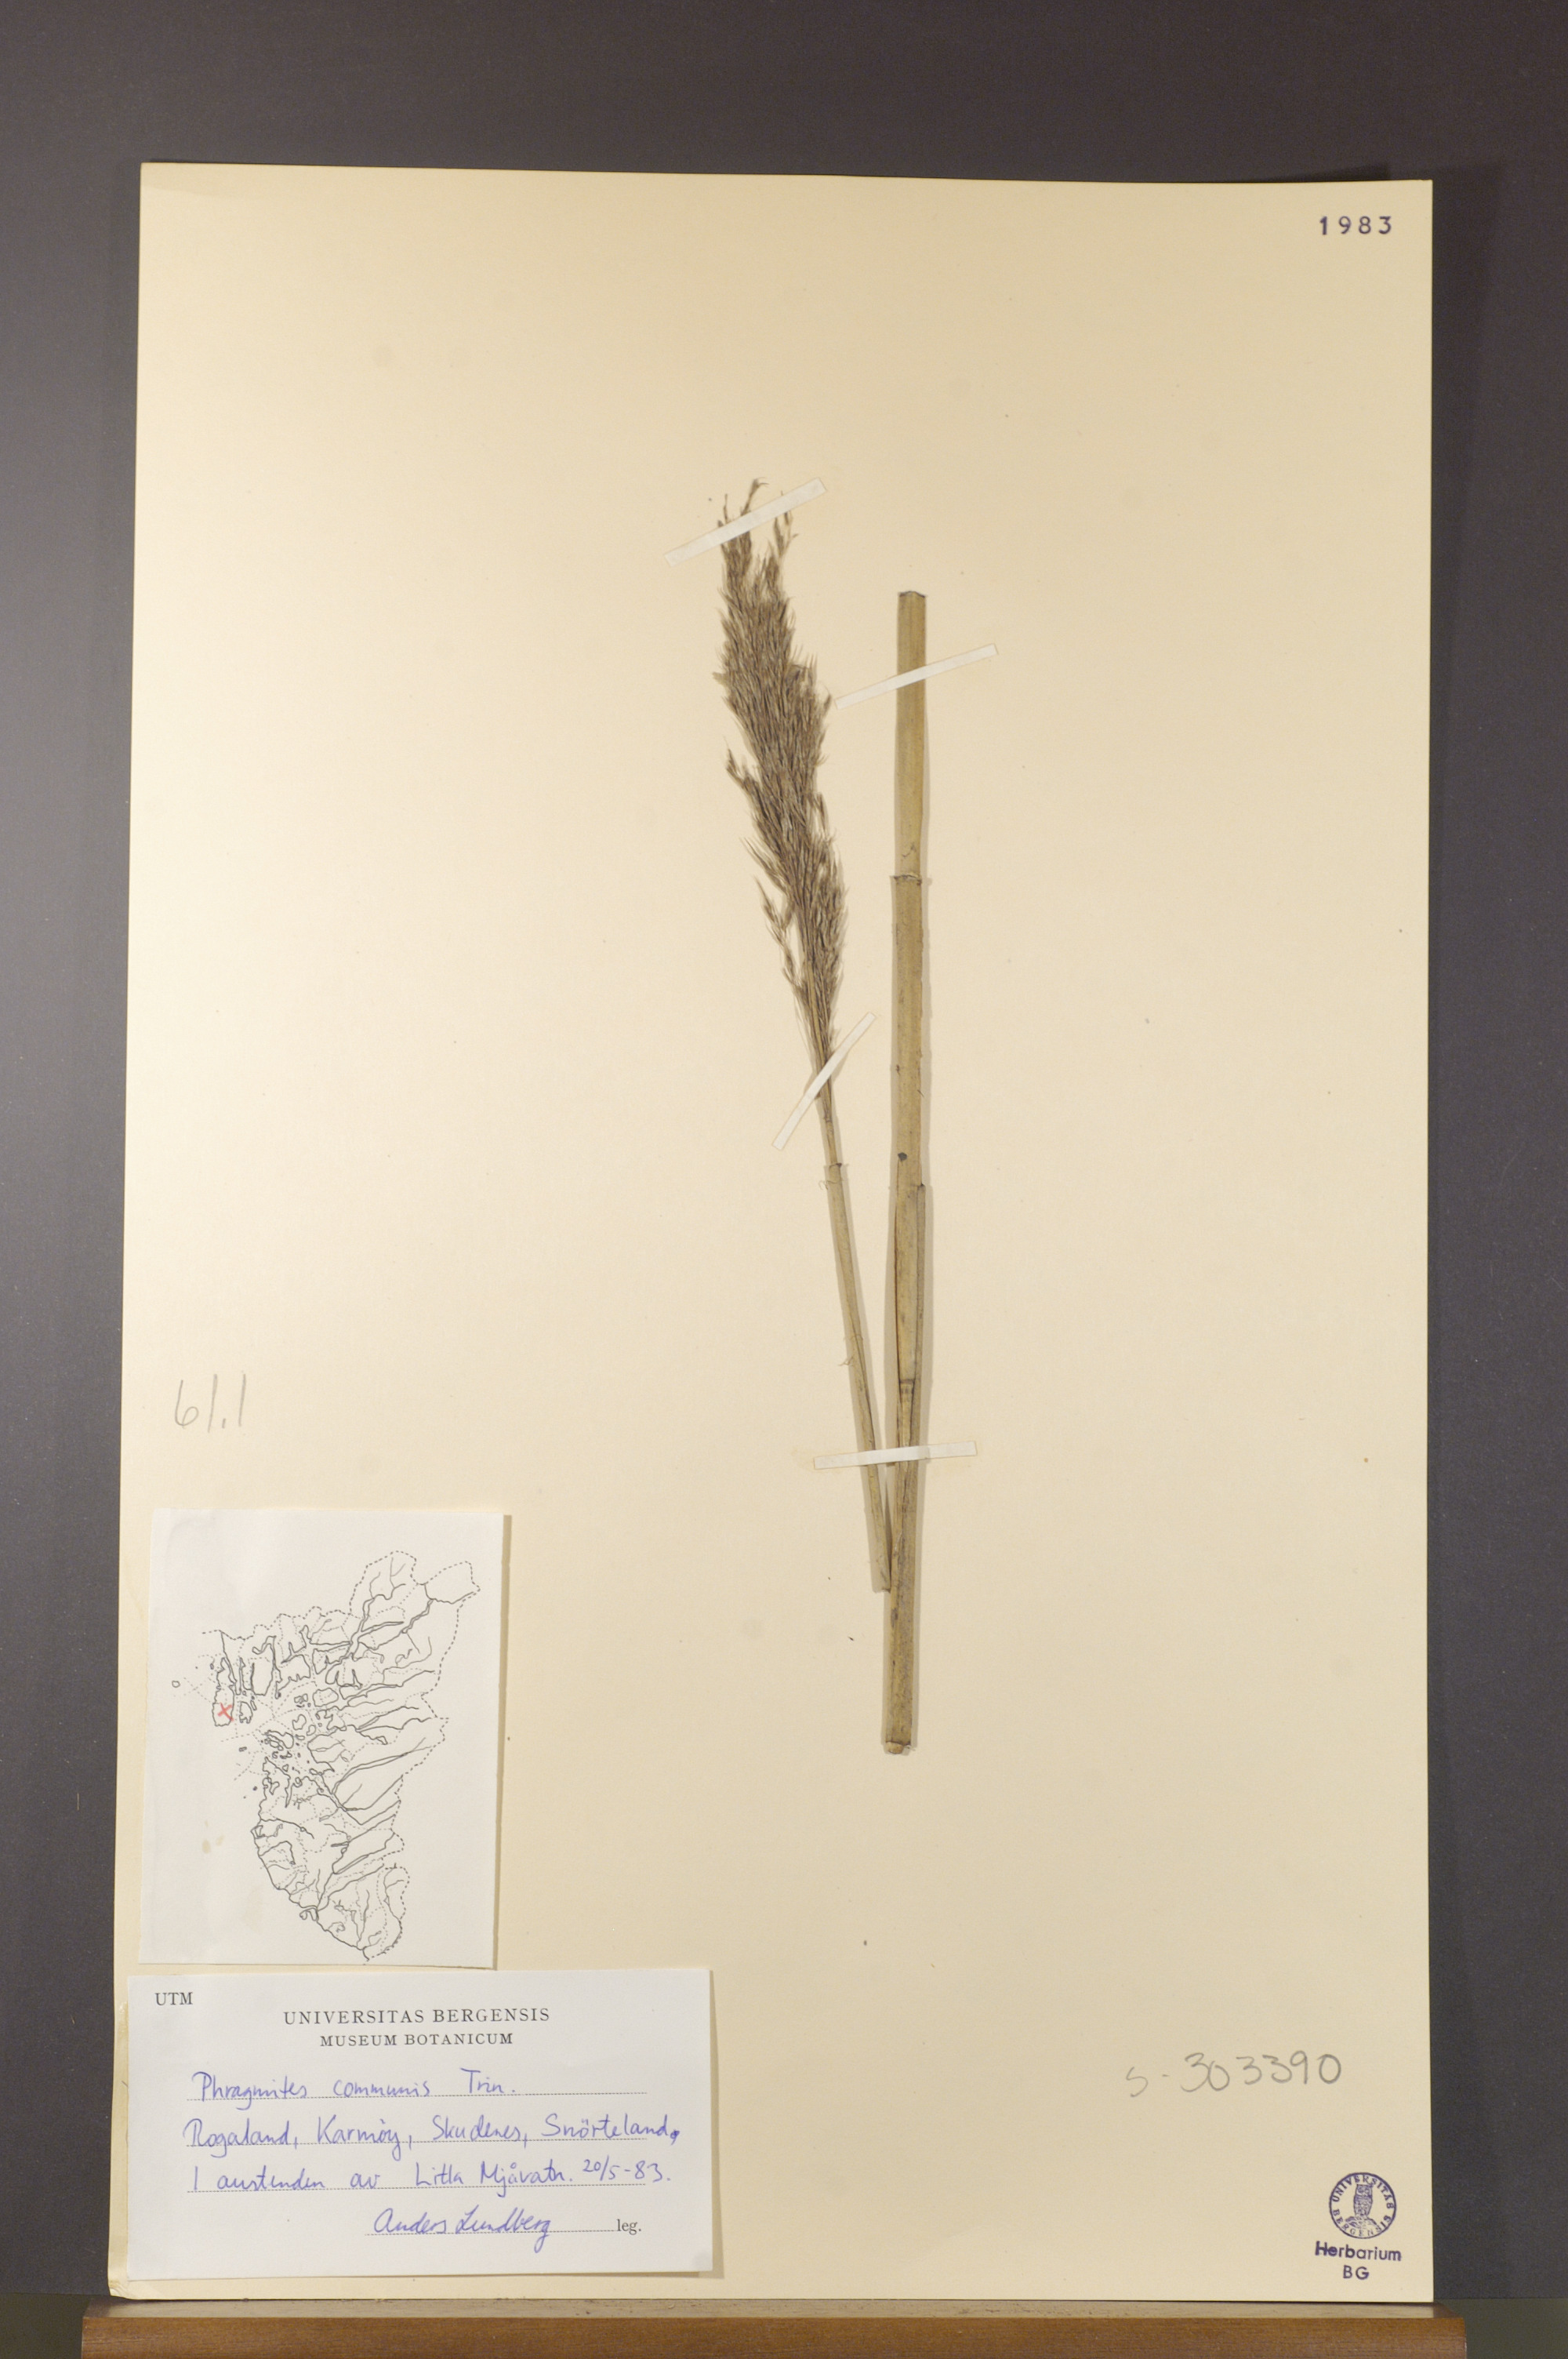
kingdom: Plantae
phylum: Tracheophyta
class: Liliopsida
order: Poales
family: Poaceae
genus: Phragmites
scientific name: Phragmites australis
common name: Common reed
